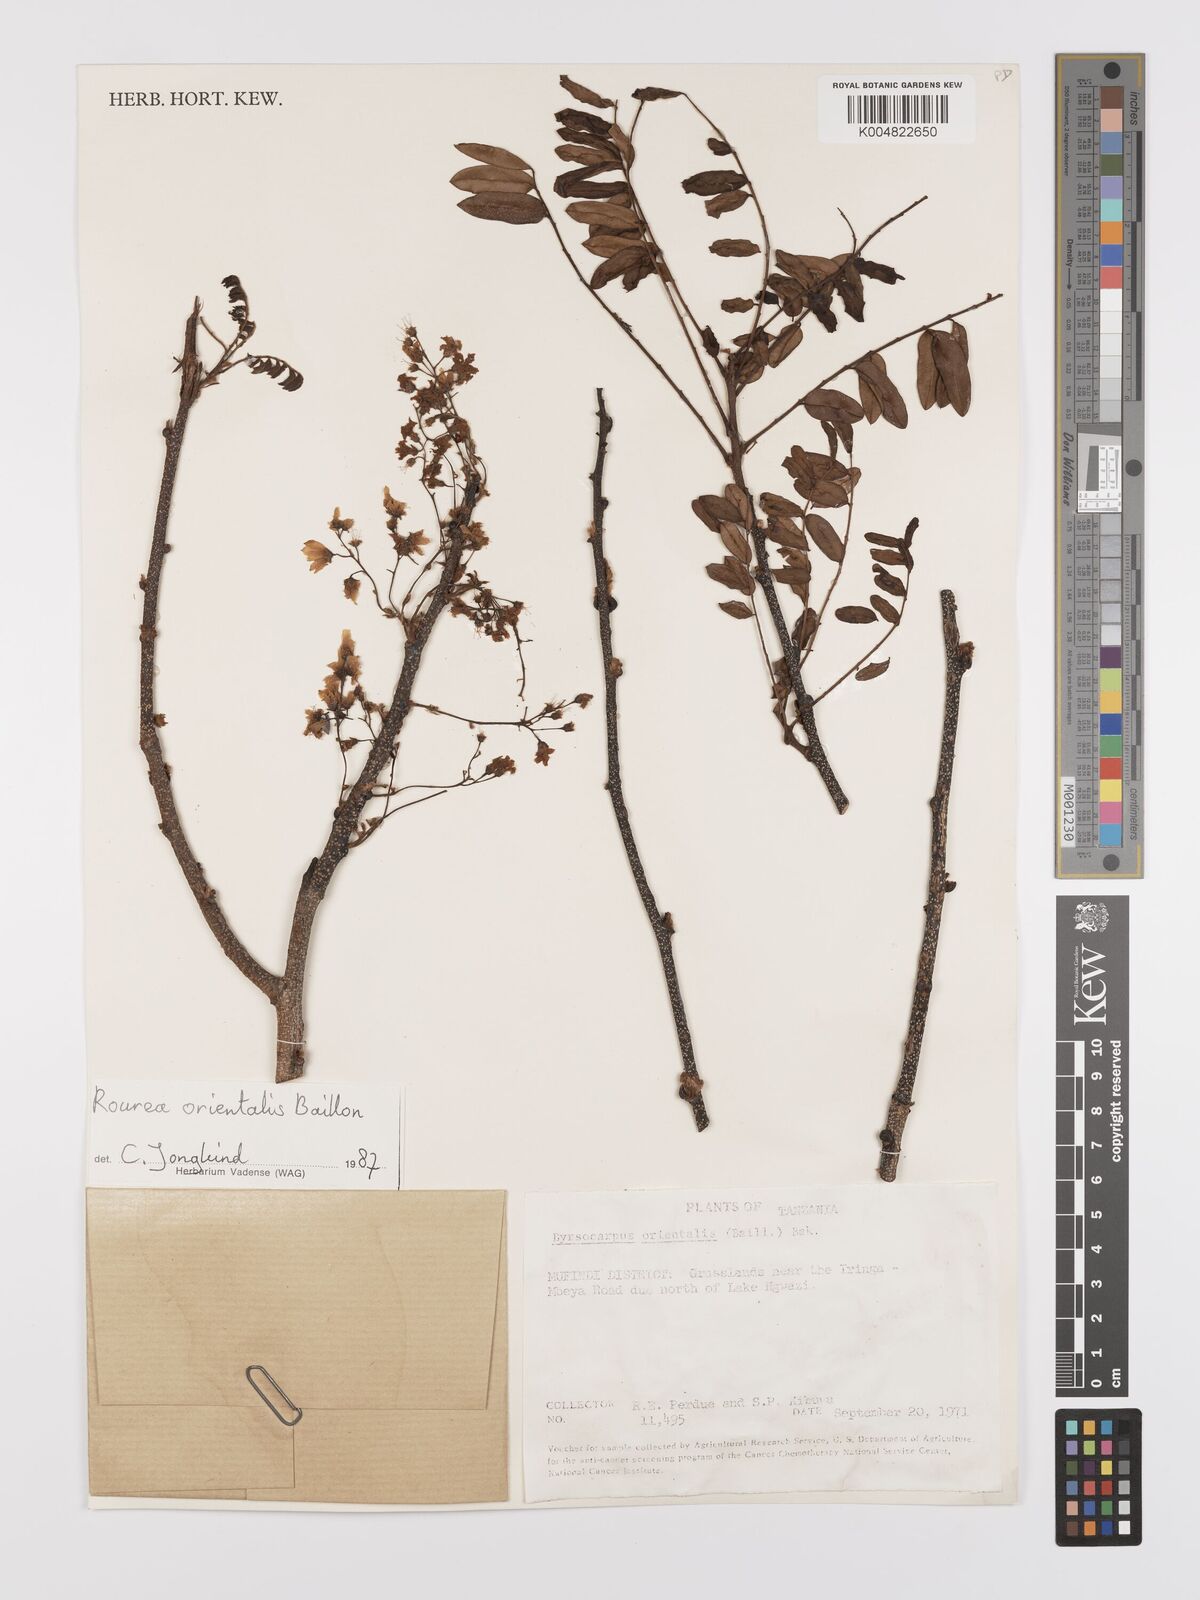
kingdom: Plantae
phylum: Tracheophyta
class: Magnoliopsida
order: Oxalidales
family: Connaraceae
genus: Rourea
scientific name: Rourea orientalis
